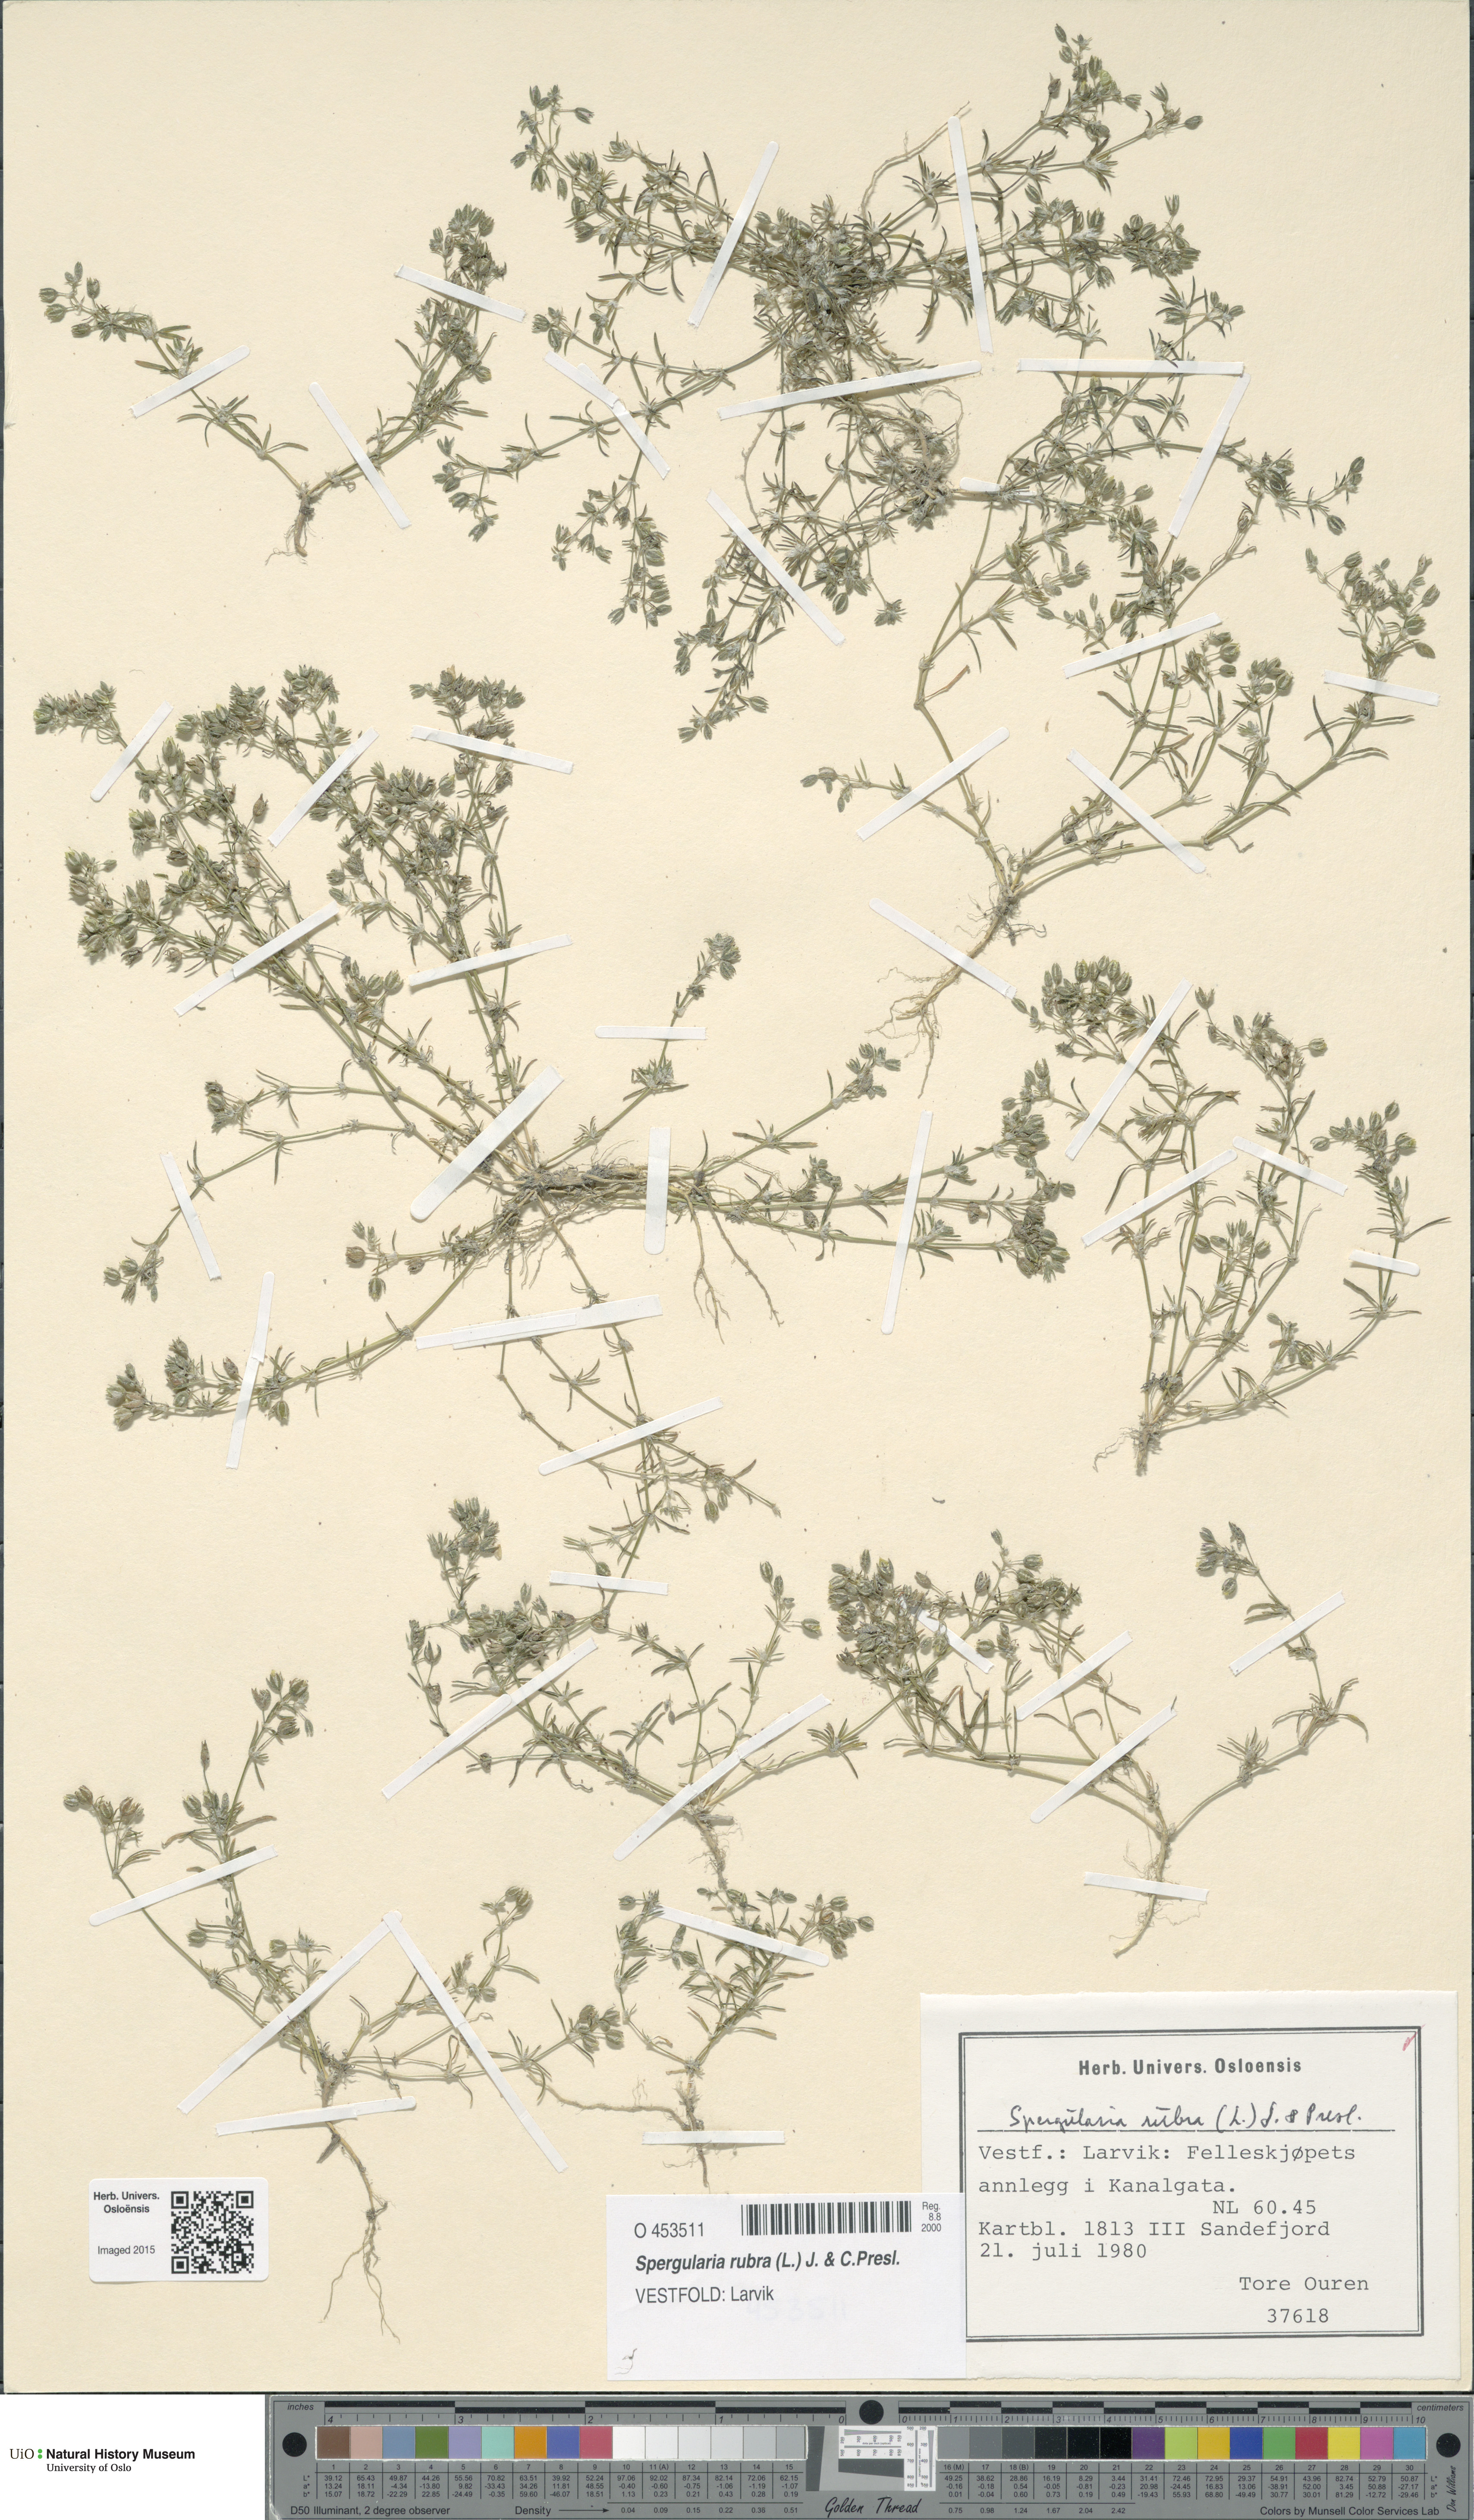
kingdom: Plantae
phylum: Tracheophyta
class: Magnoliopsida
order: Caryophyllales
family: Caryophyllaceae
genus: Spergularia
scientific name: Spergularia rubra
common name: Red sand-spurrey
